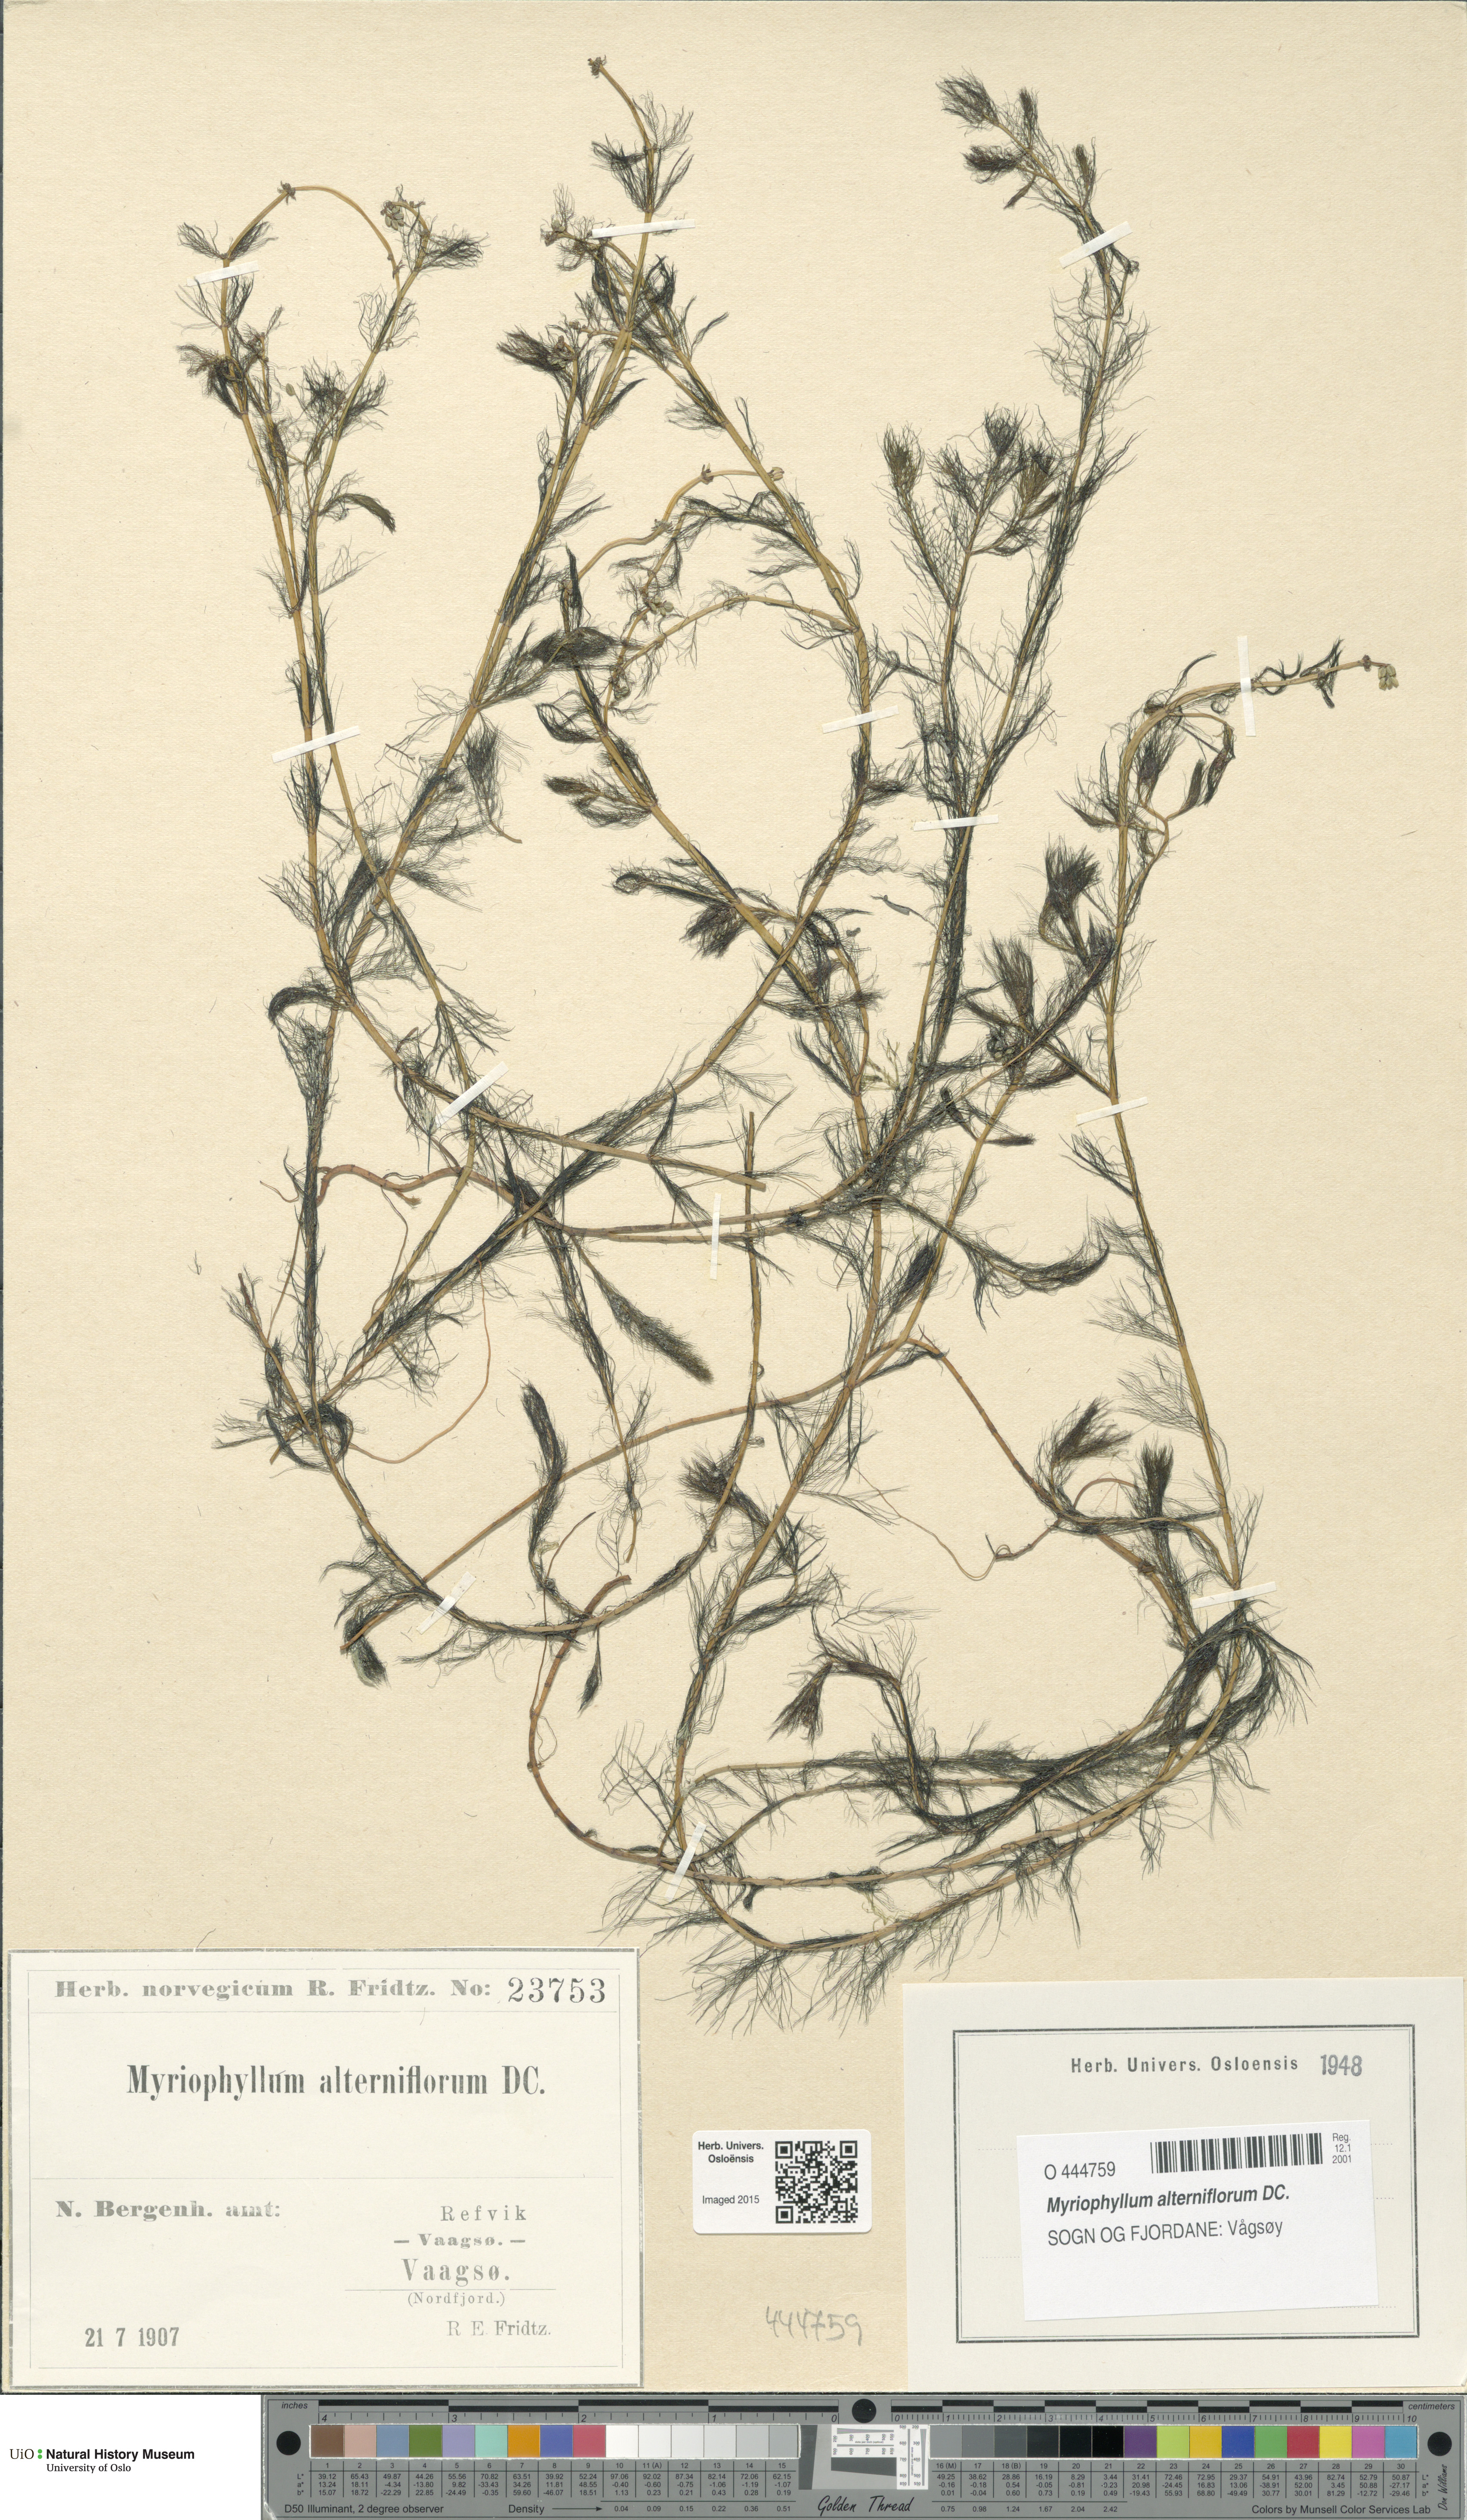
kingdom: Plantae
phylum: Tracheophyta
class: Magnoliopsida
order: Saxifragales
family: Haloragaceae
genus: Myriophyllum
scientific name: Myriophyllum alterniflorum
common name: Alternate water-milfoil
